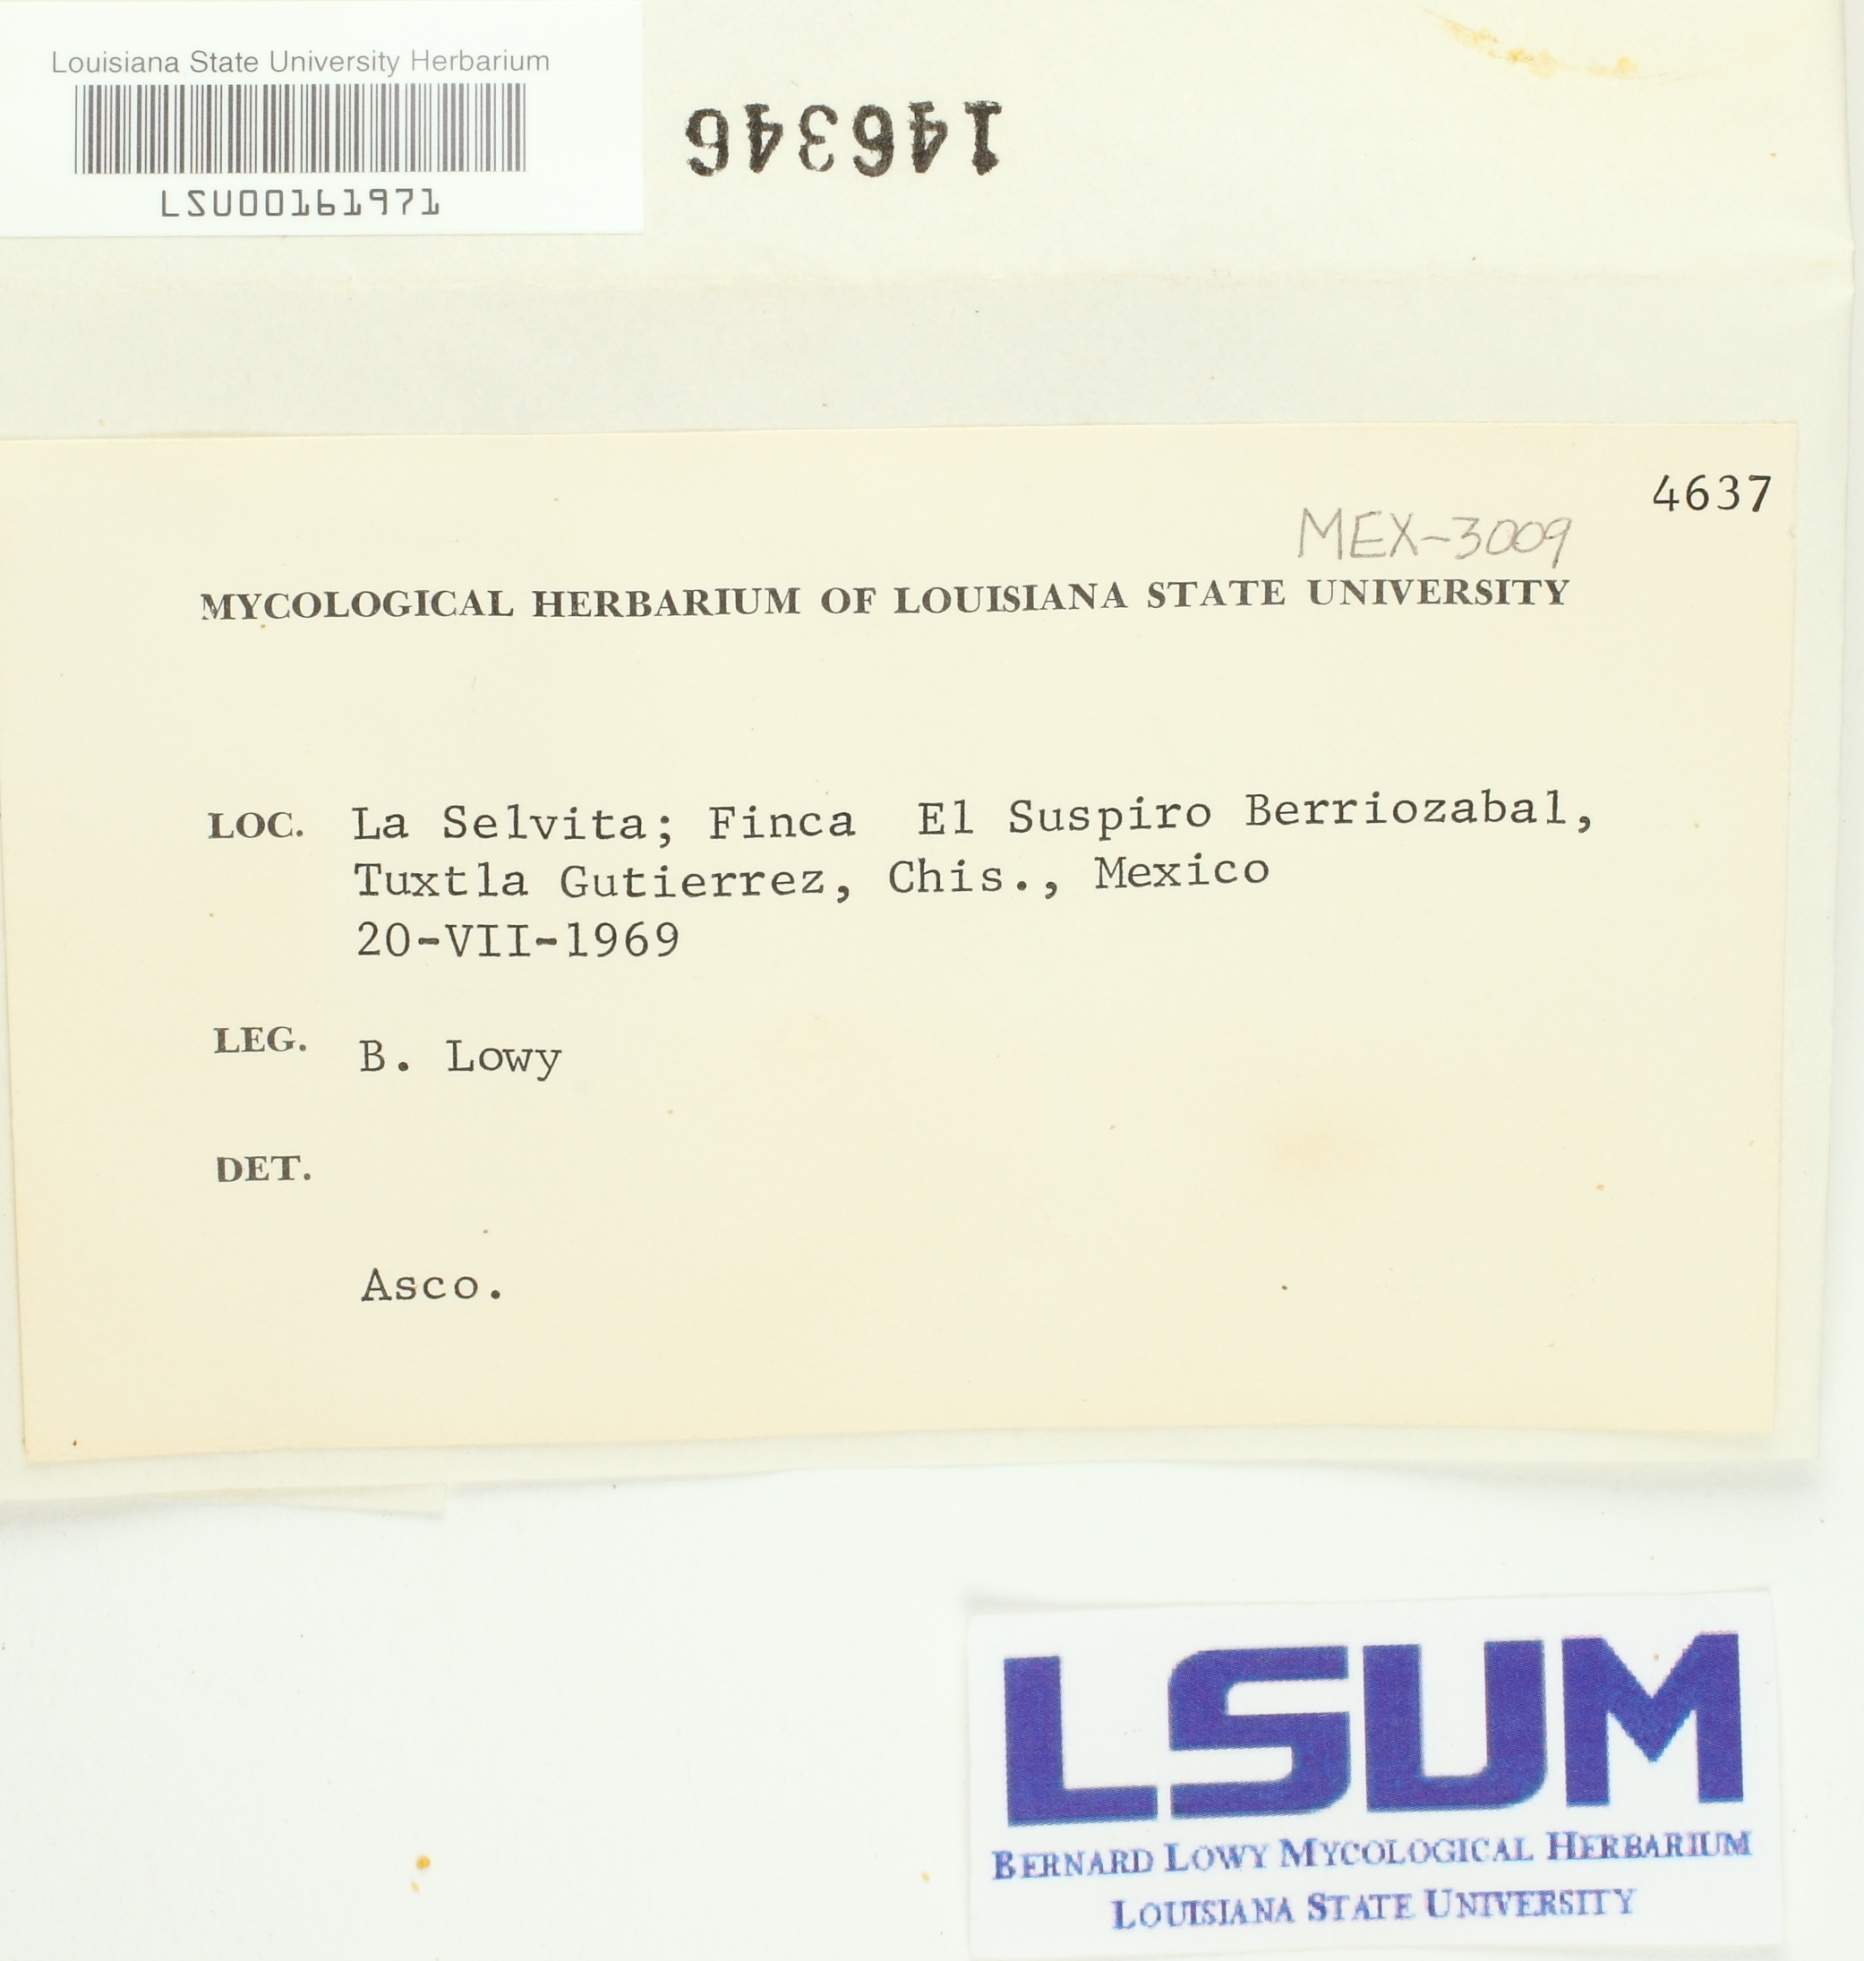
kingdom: Fungi
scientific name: Fungi
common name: Fungi
